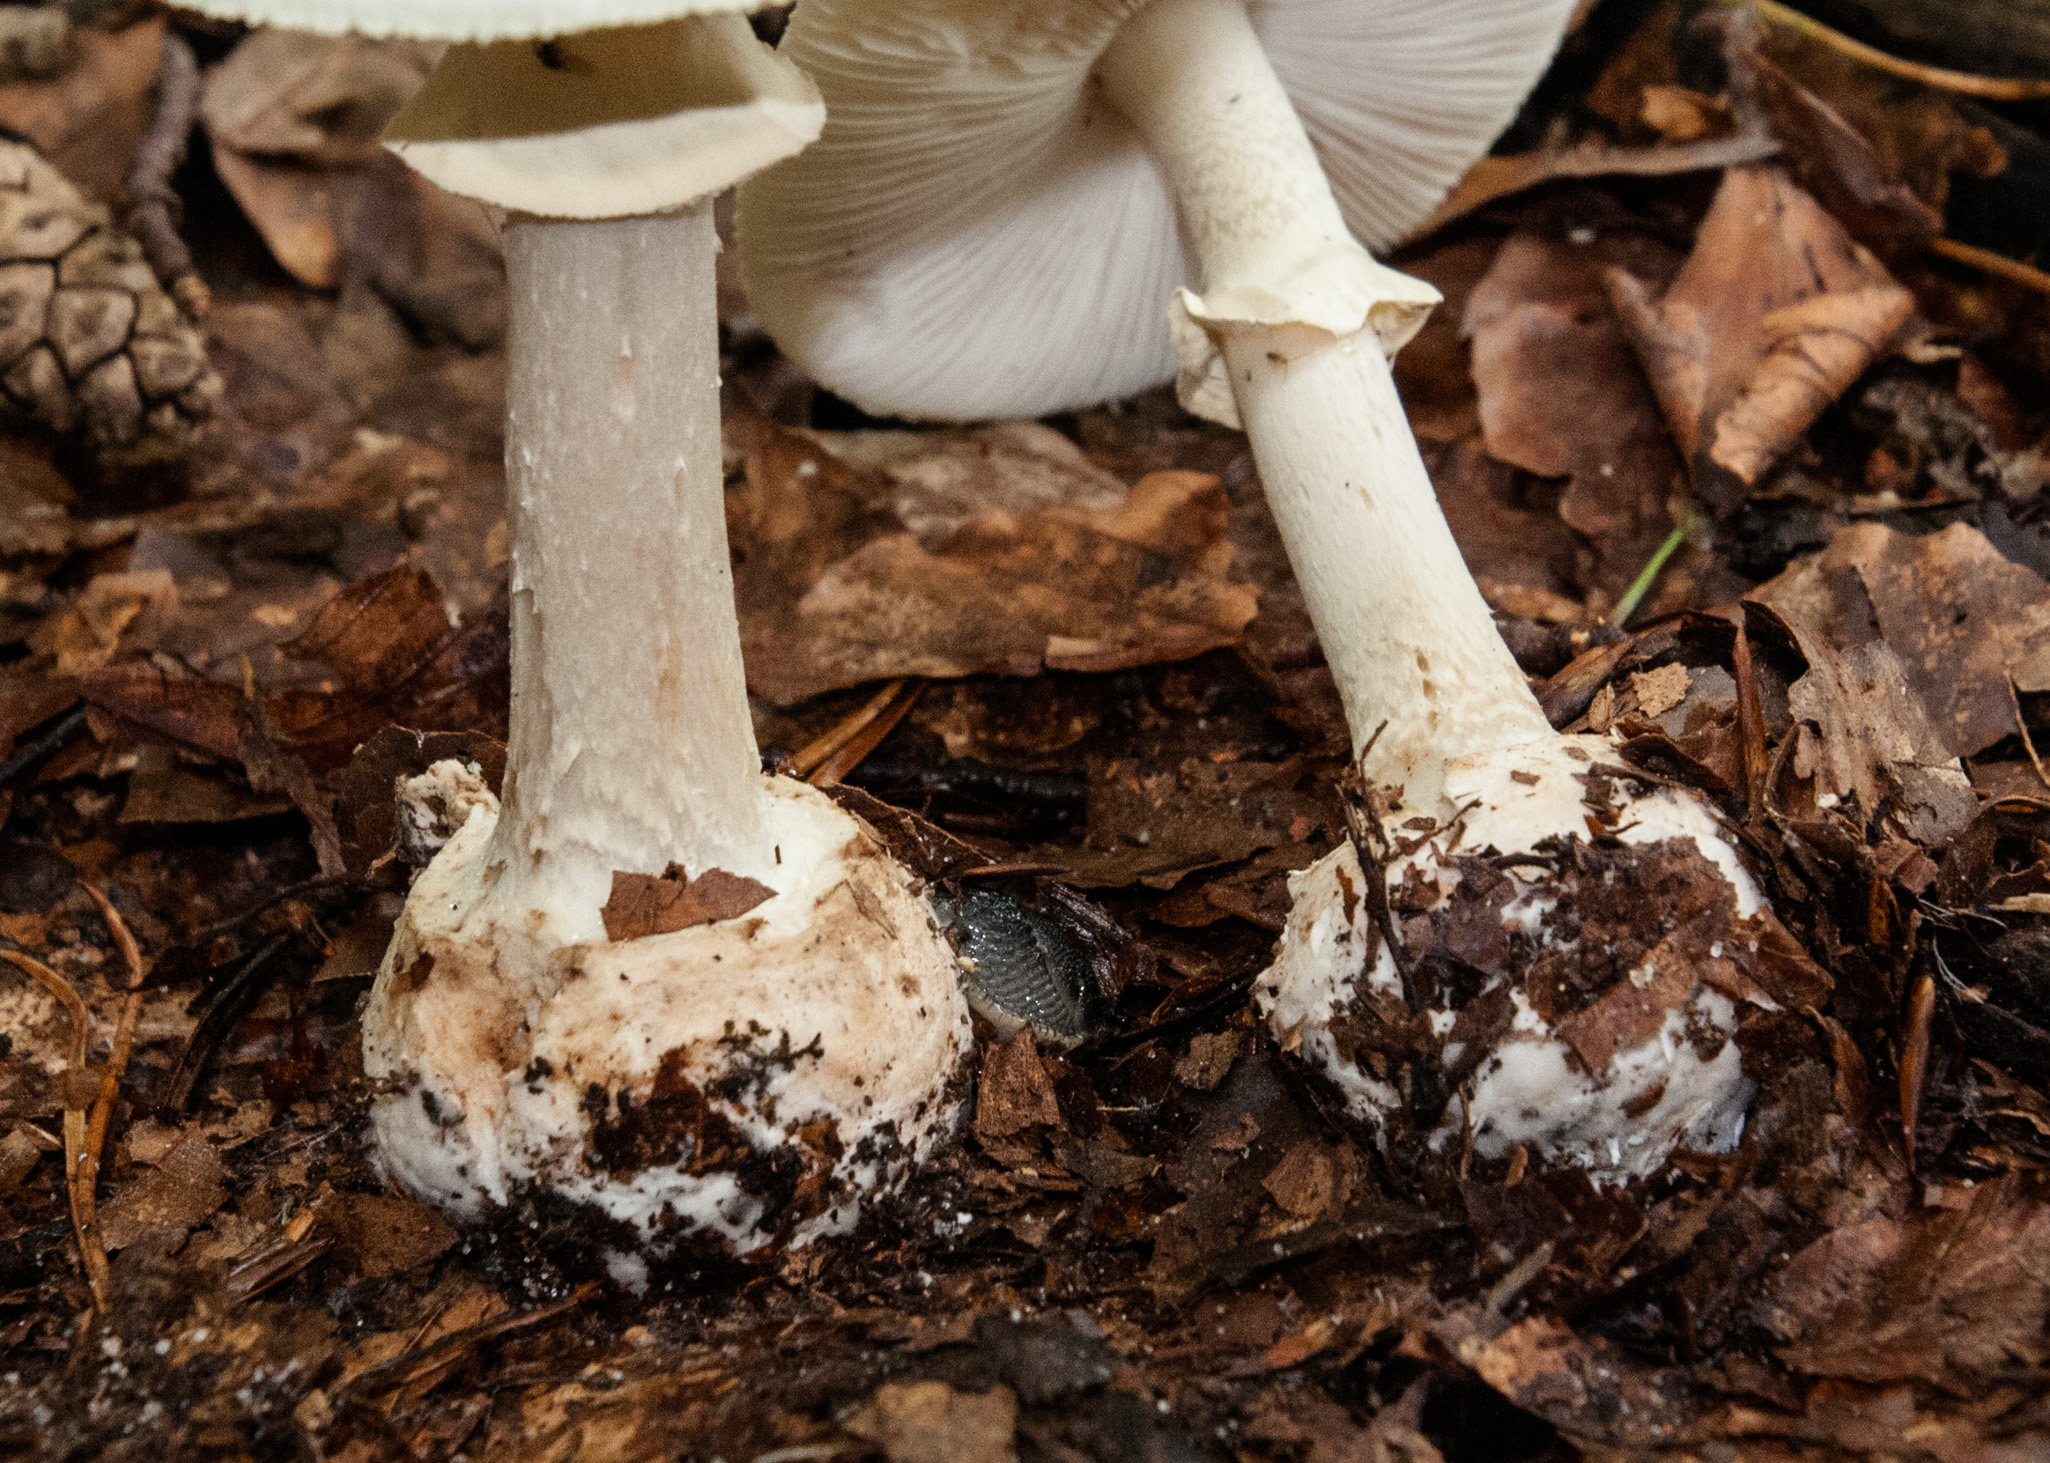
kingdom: Fungi
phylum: Basidiomycota
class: Agaricomycetes
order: Agaricales
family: Amanitaceae
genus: Amanita
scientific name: Amanita citrina
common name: False death-cap
